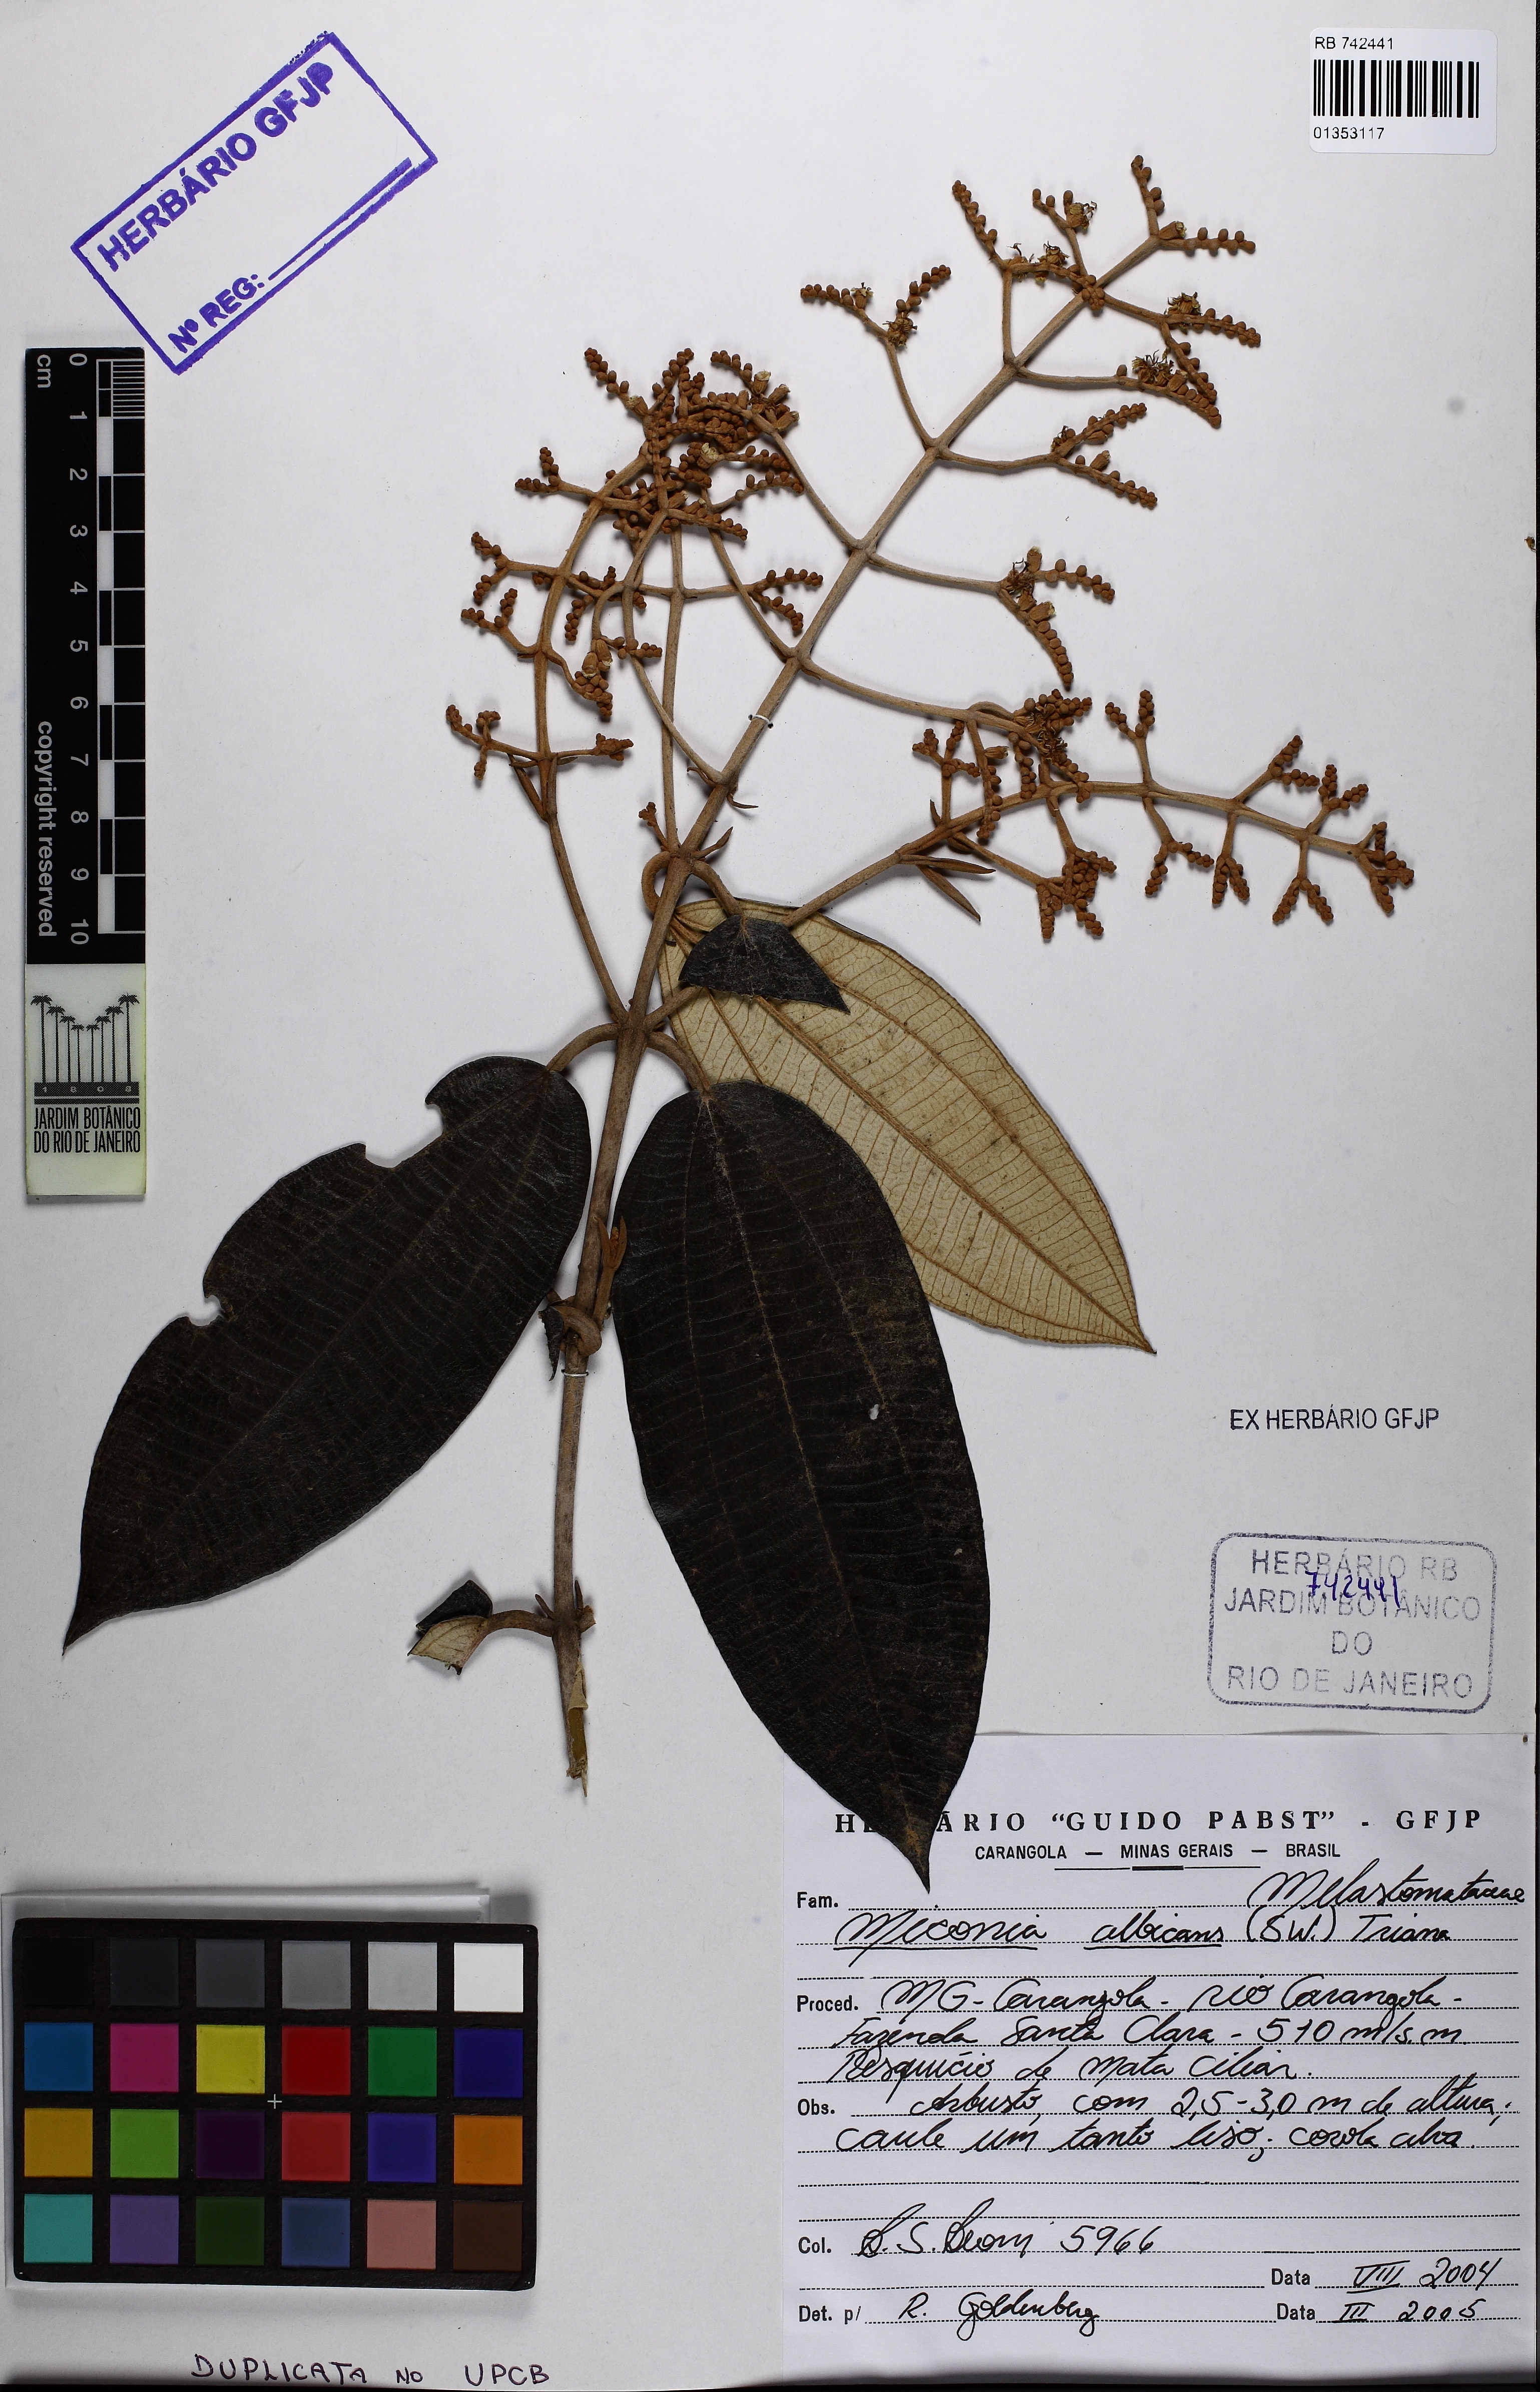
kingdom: Plantae
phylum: Tracheophyta
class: Magnoliopsida
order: Myrtales
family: Melastomataceae
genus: Miconia
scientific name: Miconia albicans
